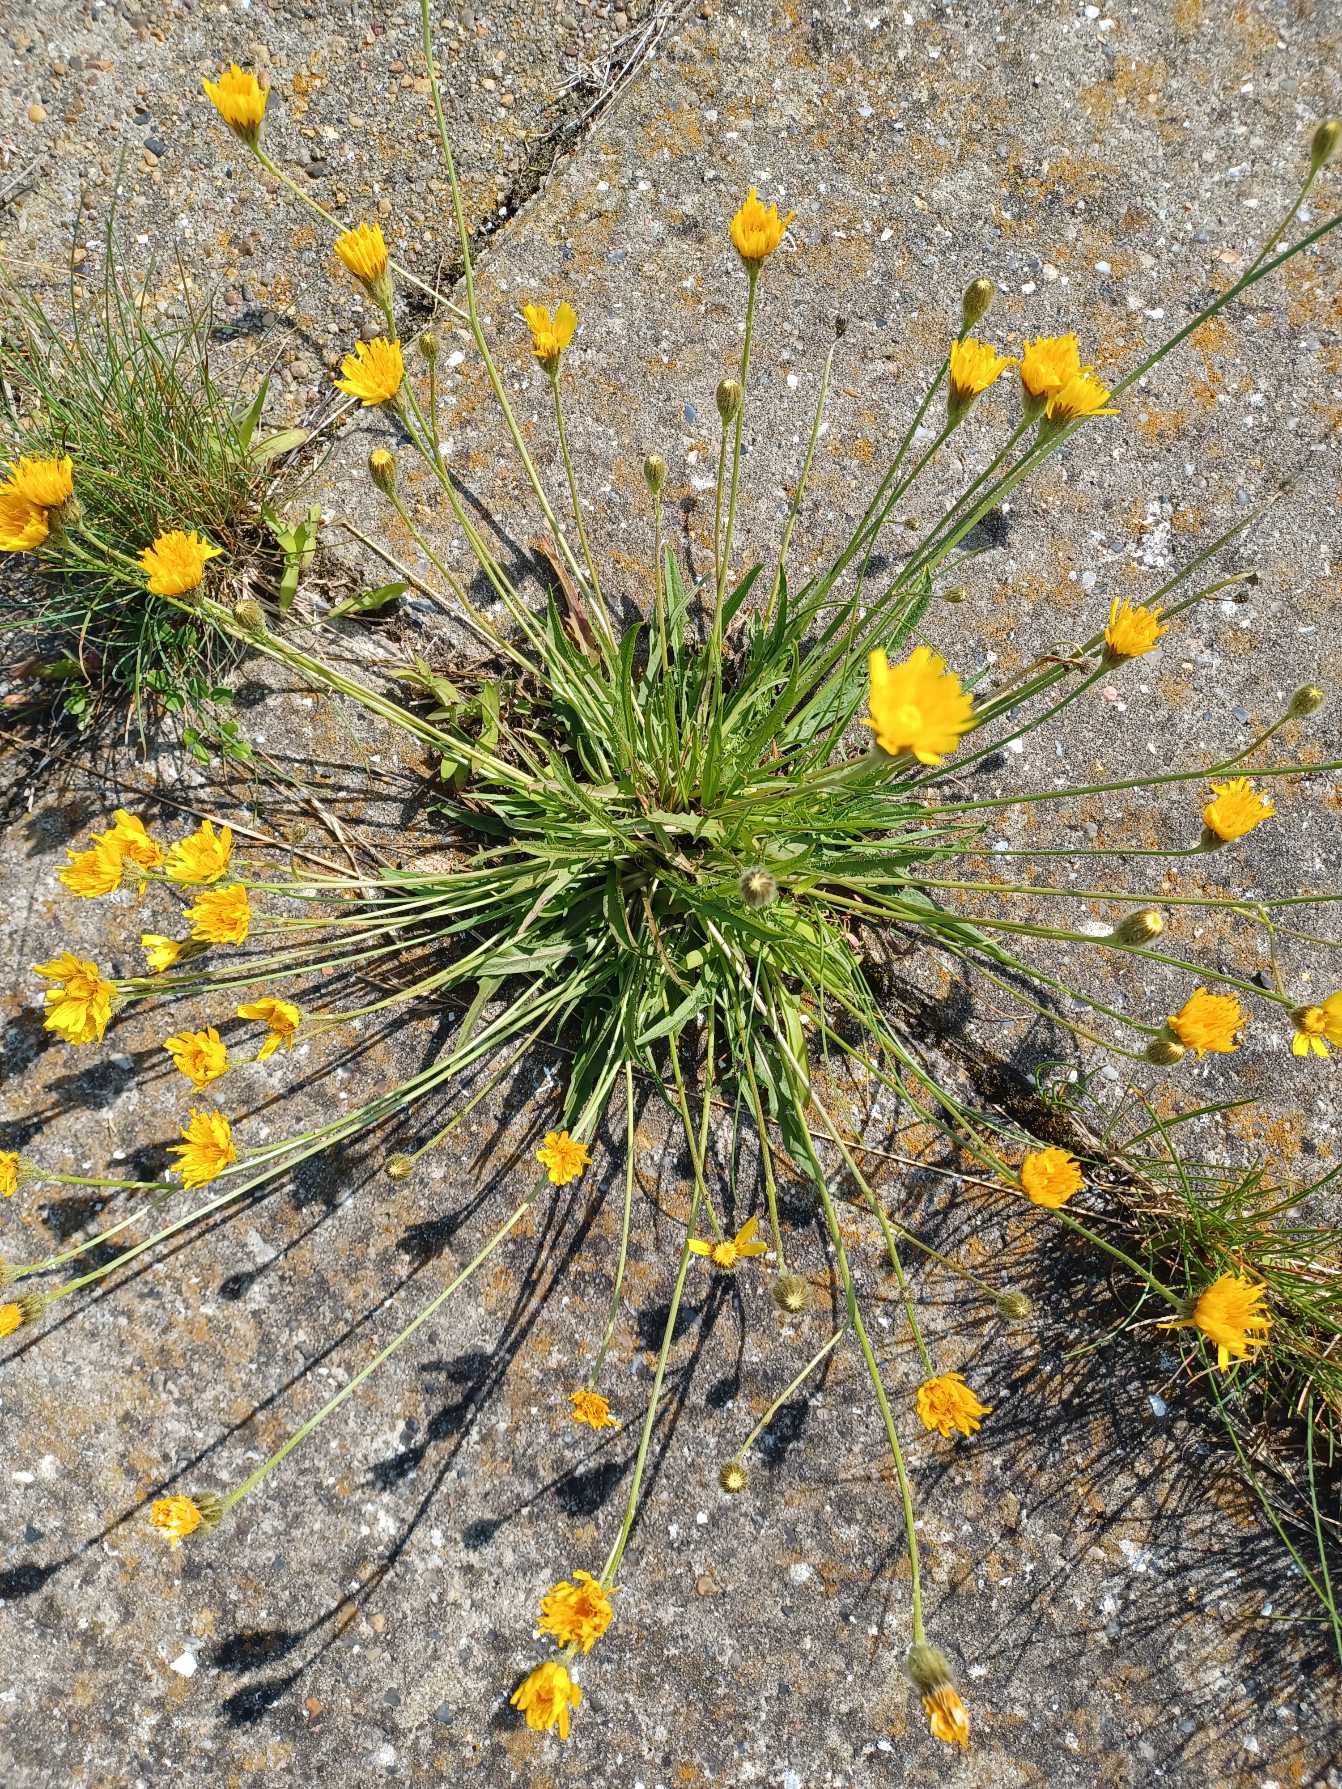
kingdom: Plantae
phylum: Tracheophyta
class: Magnoliopsida
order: Asterales
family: Asteraceae
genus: Scorzoneroides
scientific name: Scorzoneroides autumnalis
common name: Høst-borst
